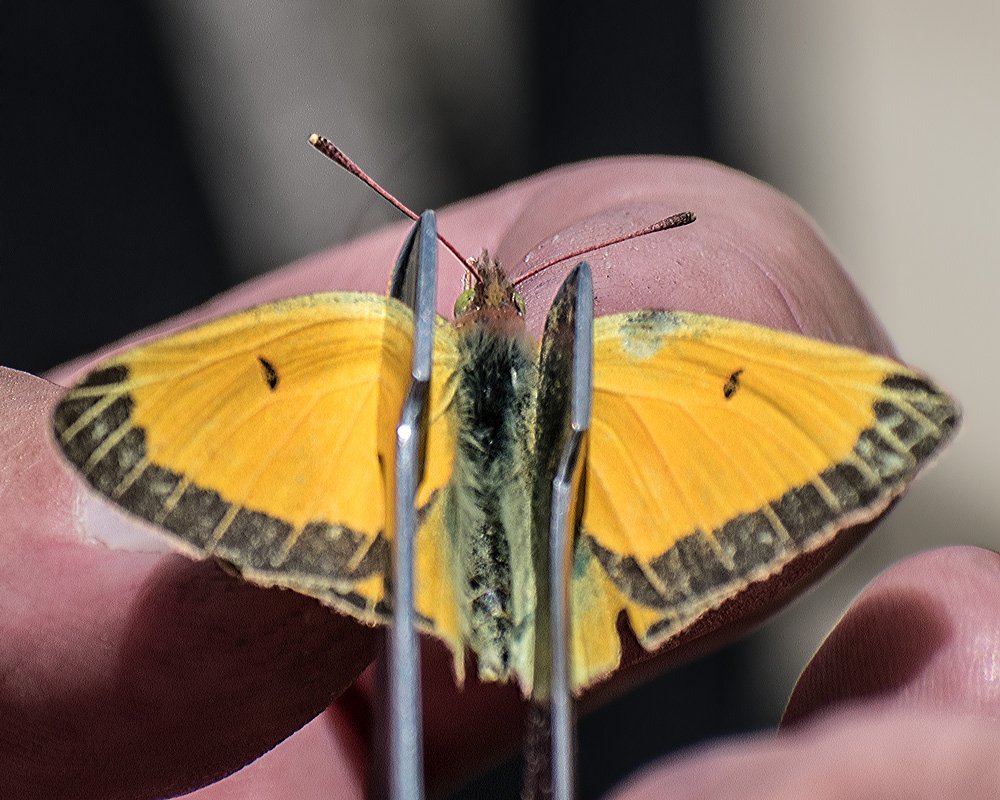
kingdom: Animalia
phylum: Arthropoda
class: Insecta
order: Lepidoptera
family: Pieridae
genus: Colias
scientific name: Colias meadii
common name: Mead's Sulphur
